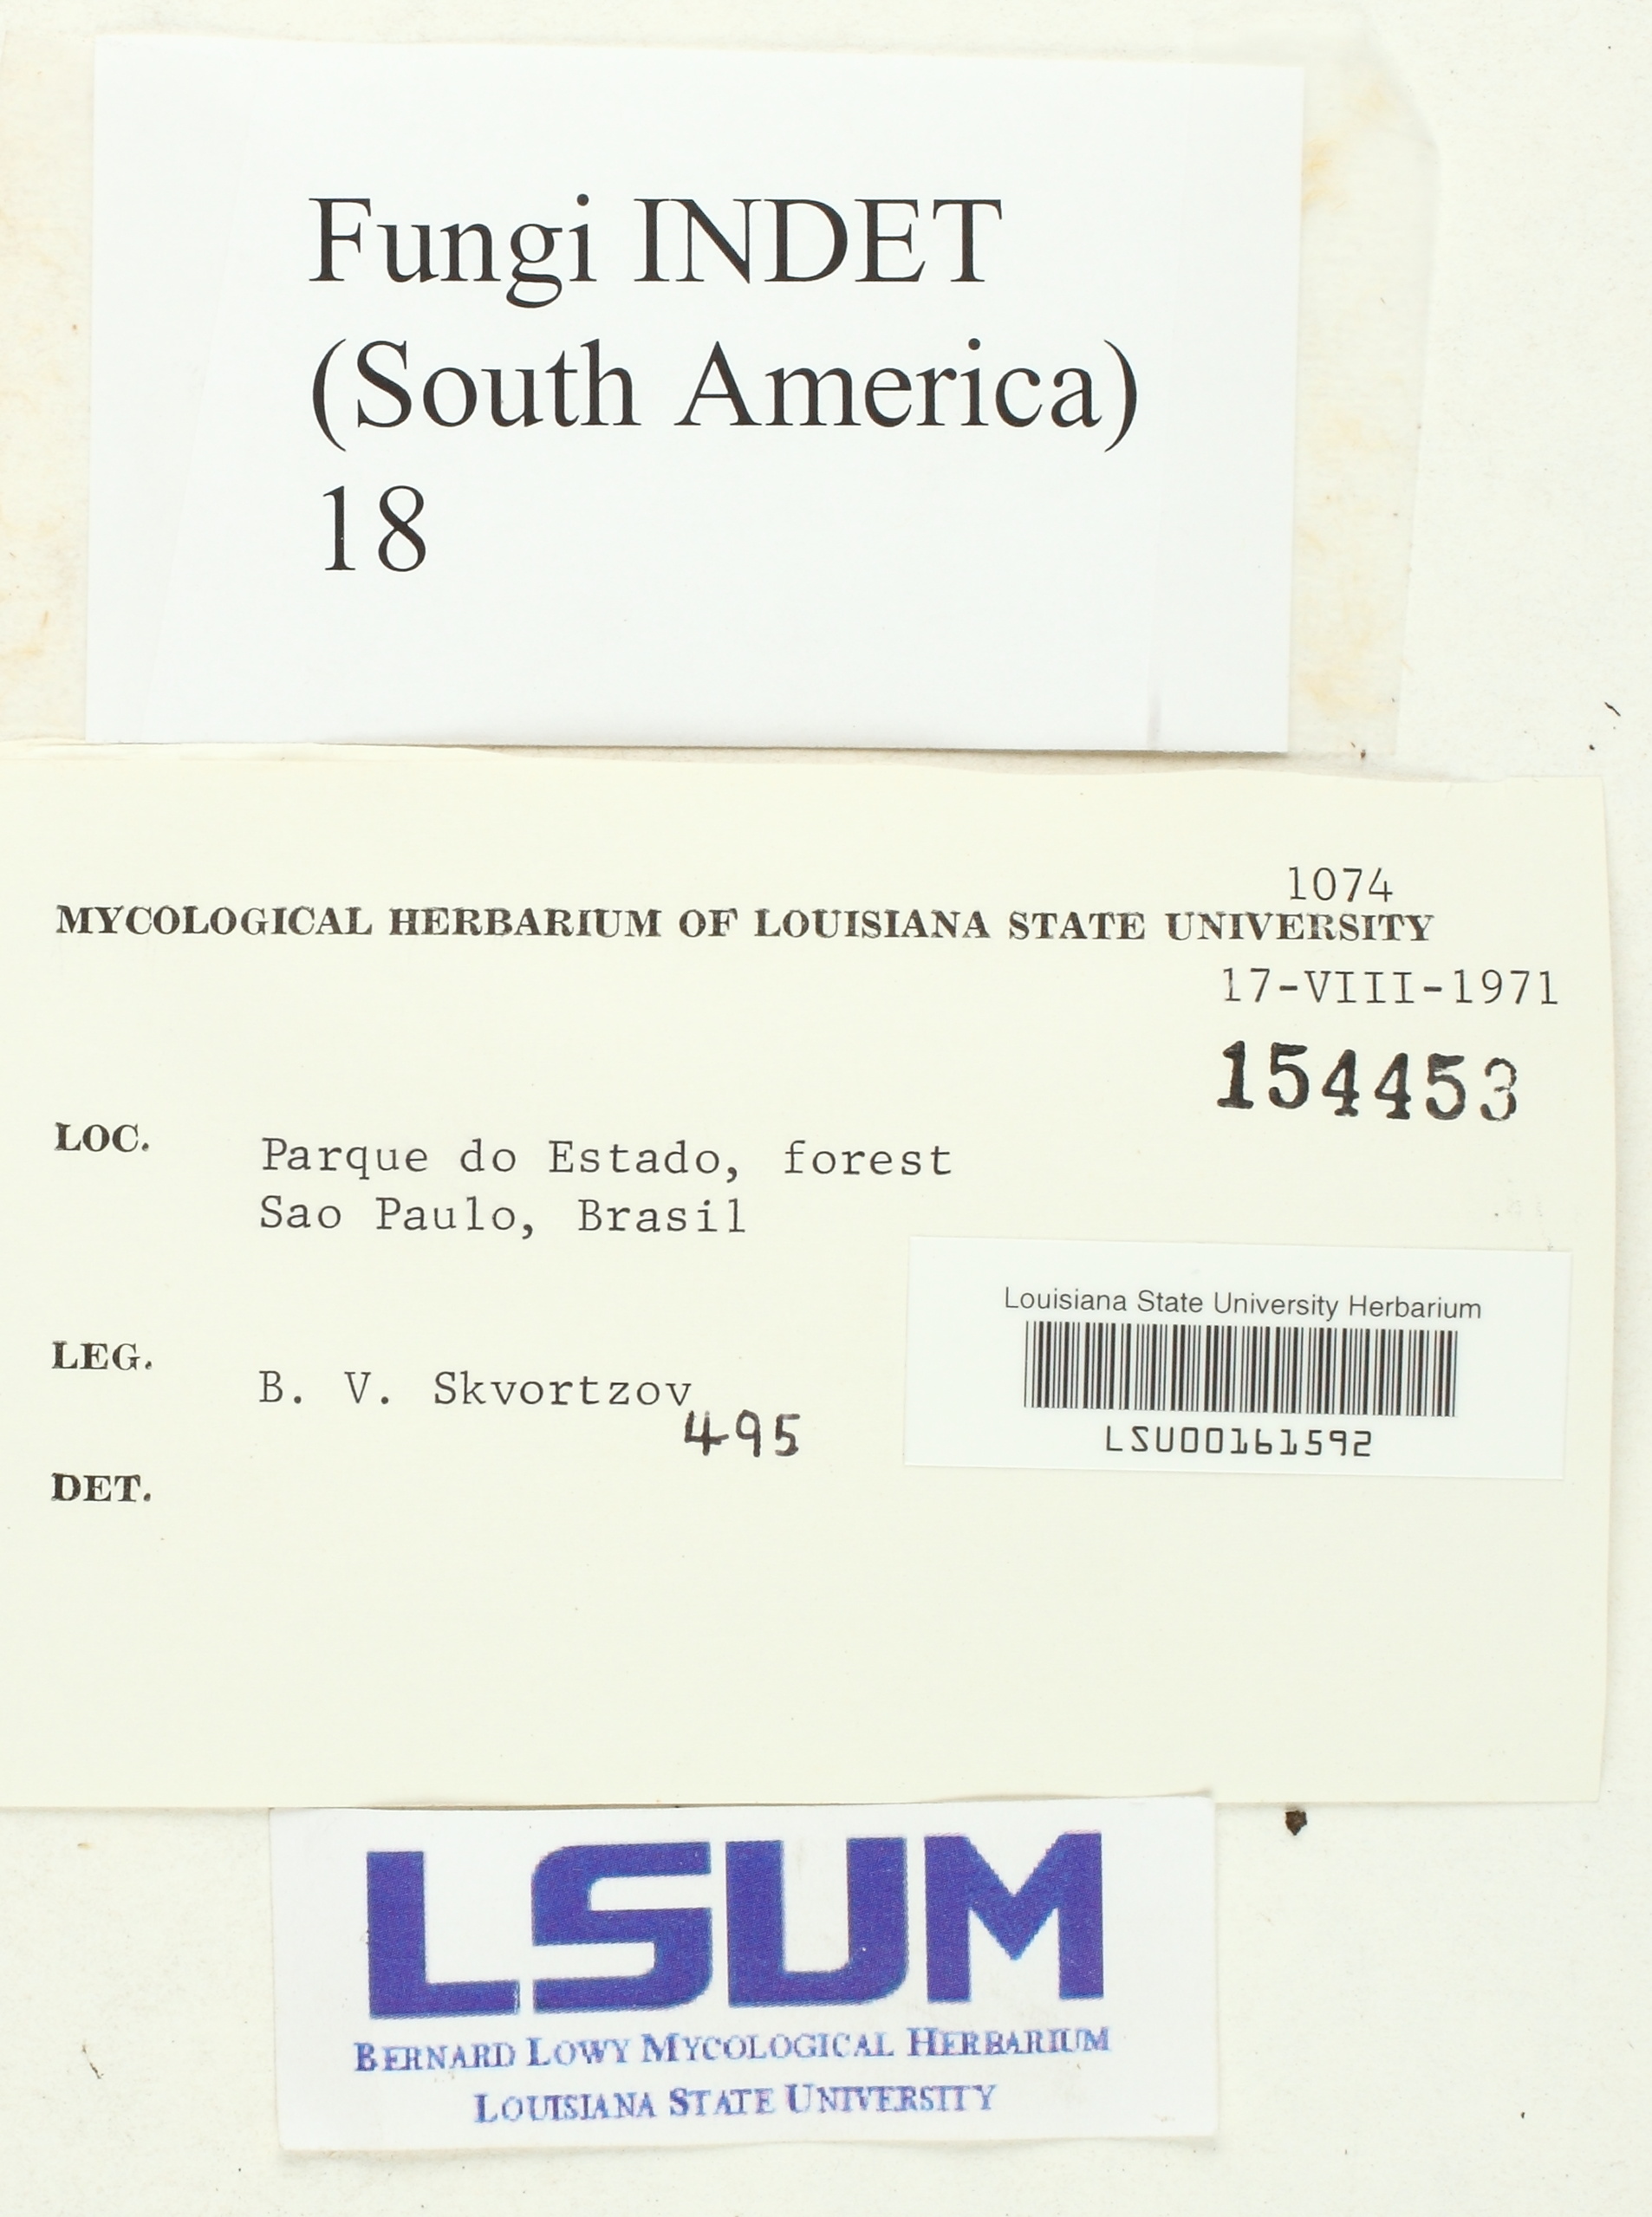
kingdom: Fungi
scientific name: Fungi
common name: Fungi
